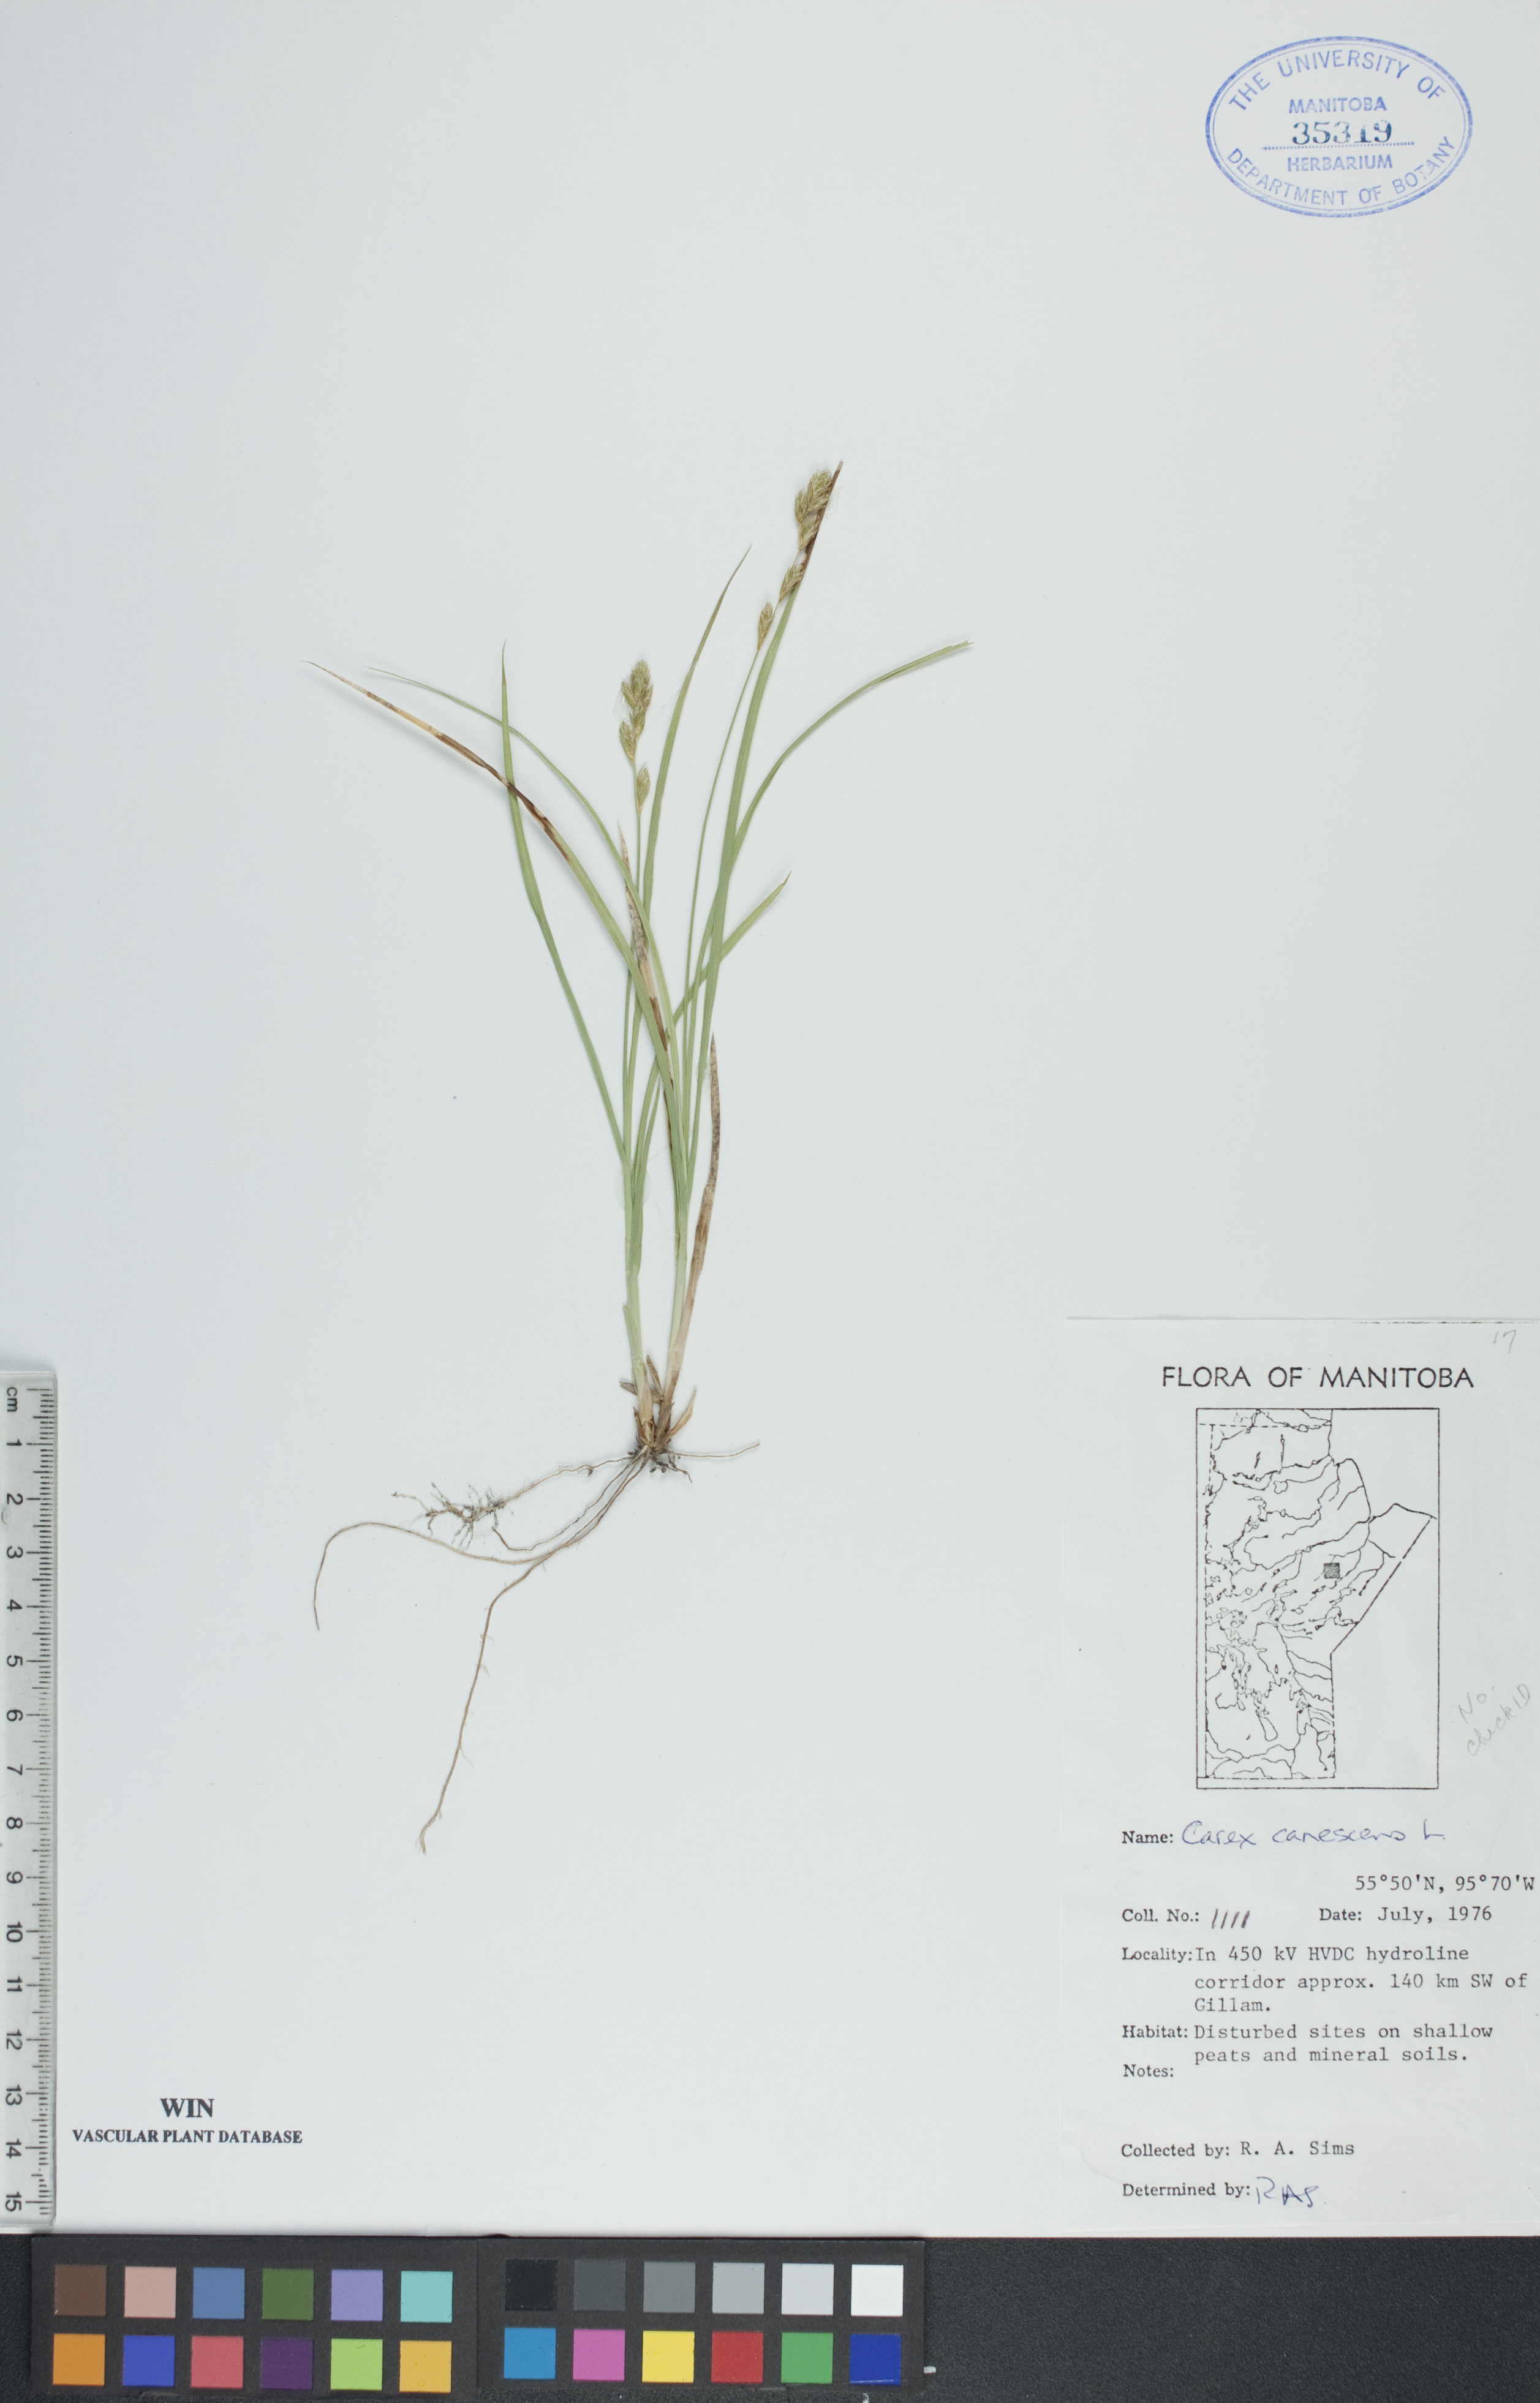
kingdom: Plantae
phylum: Tracheophyta
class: Liliopsida
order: Poales
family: Cyperaceae
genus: Carex
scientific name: Carex canescens
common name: White sedge
